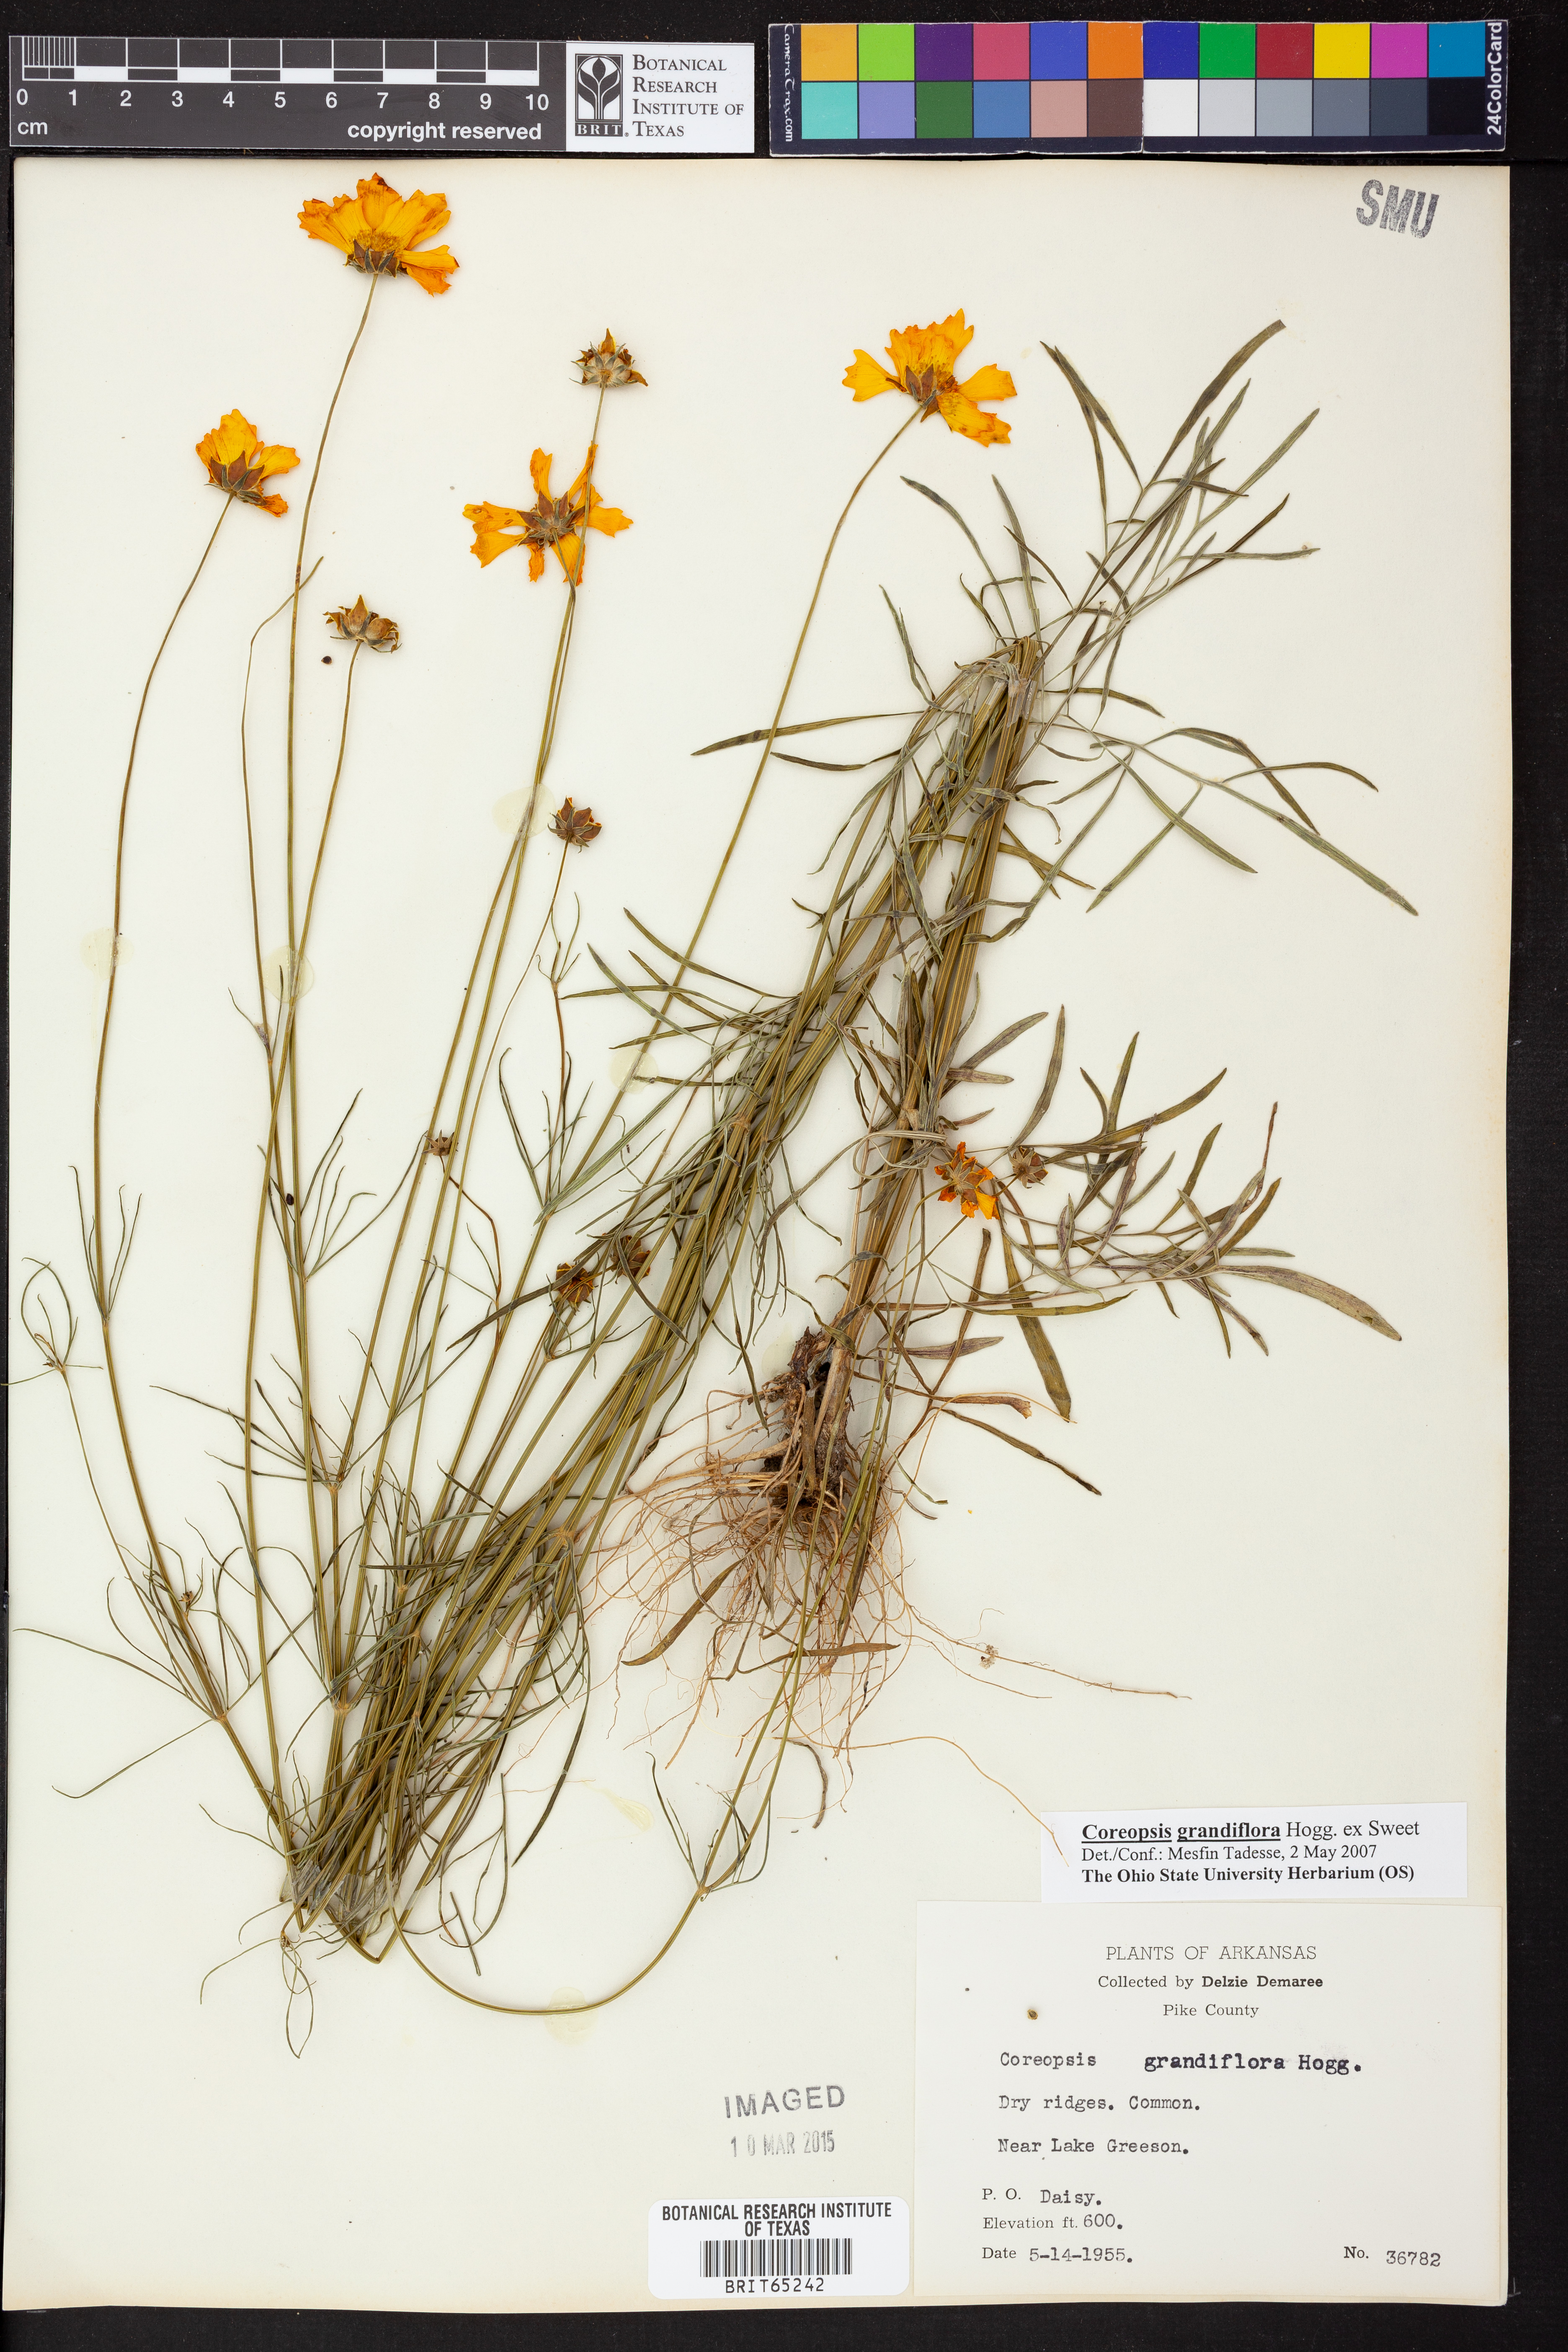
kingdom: Plantae
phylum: Tracheophyta
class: Magnoliopsida
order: Asterales
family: Asteraceae
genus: Coreopsis
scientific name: Coreopsis grandiflora
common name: Large-flowered tickseed
